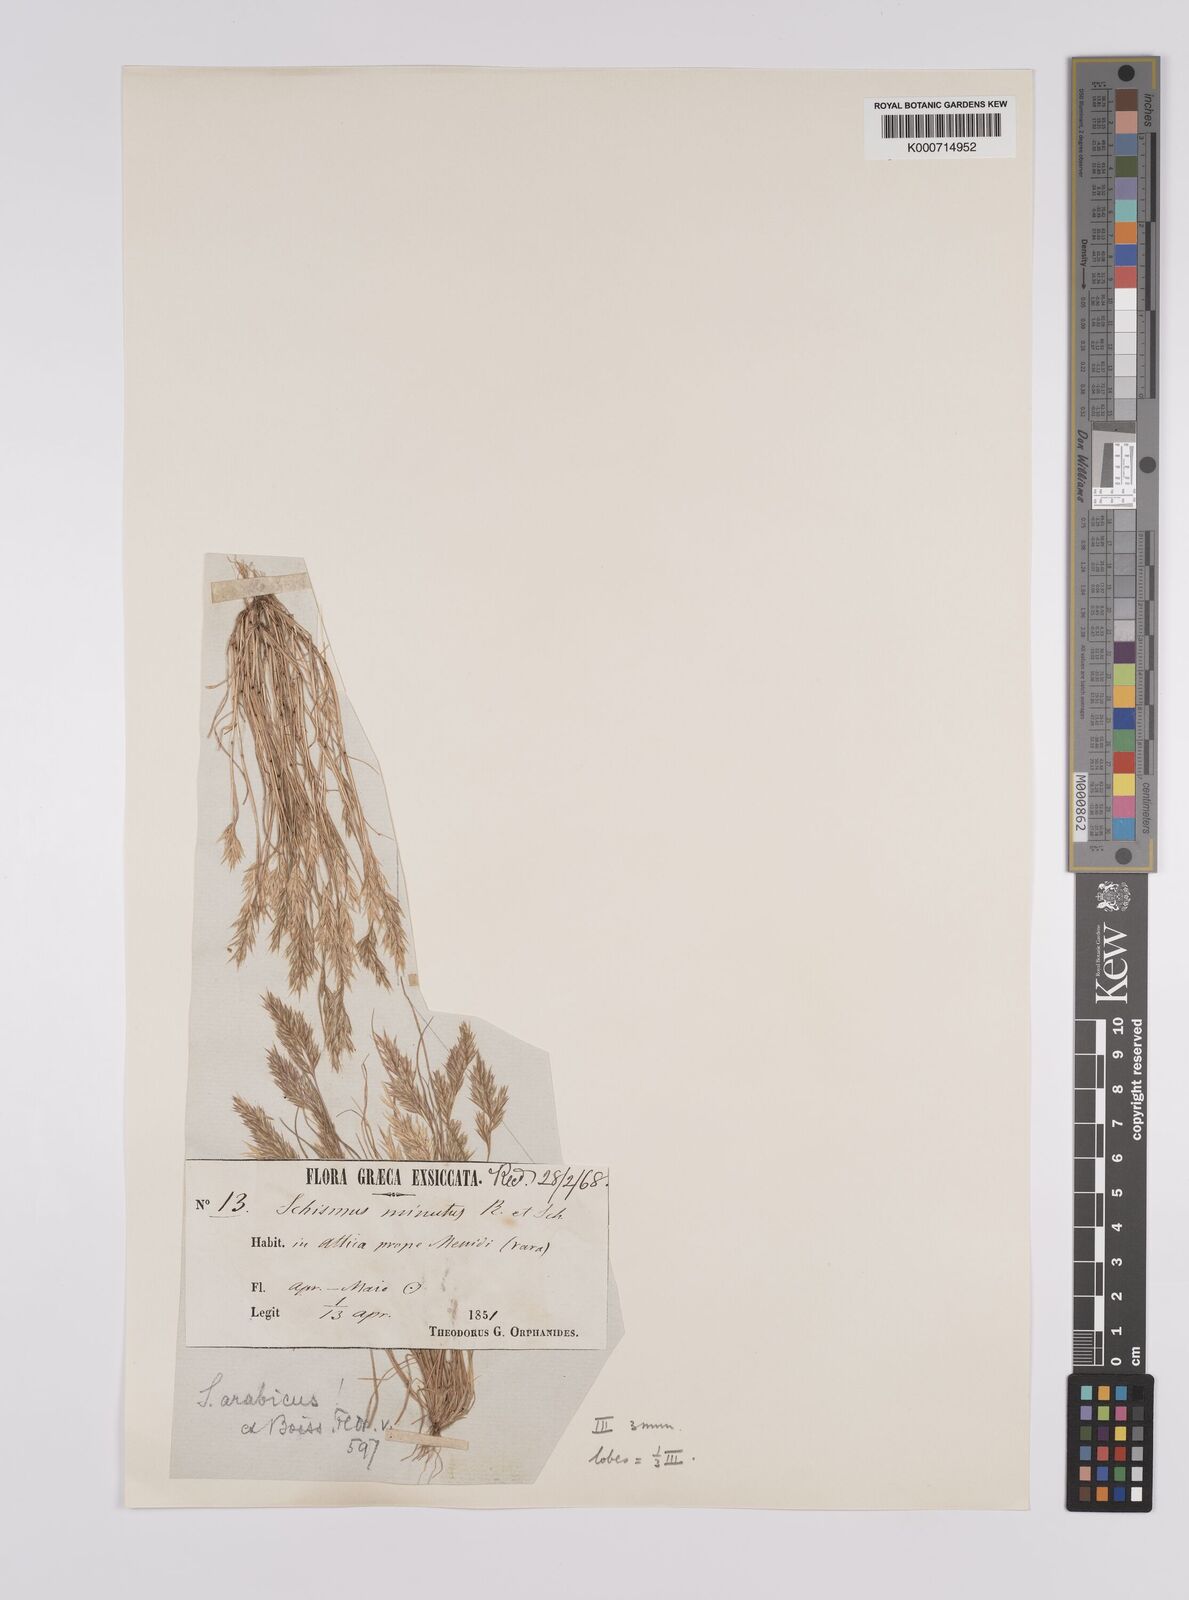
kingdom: Plantae
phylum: Tracheophyta
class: Liliopsida
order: Poales
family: Poaceae
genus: Schismus
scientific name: Schismus arabicus
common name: Arabian schismus
